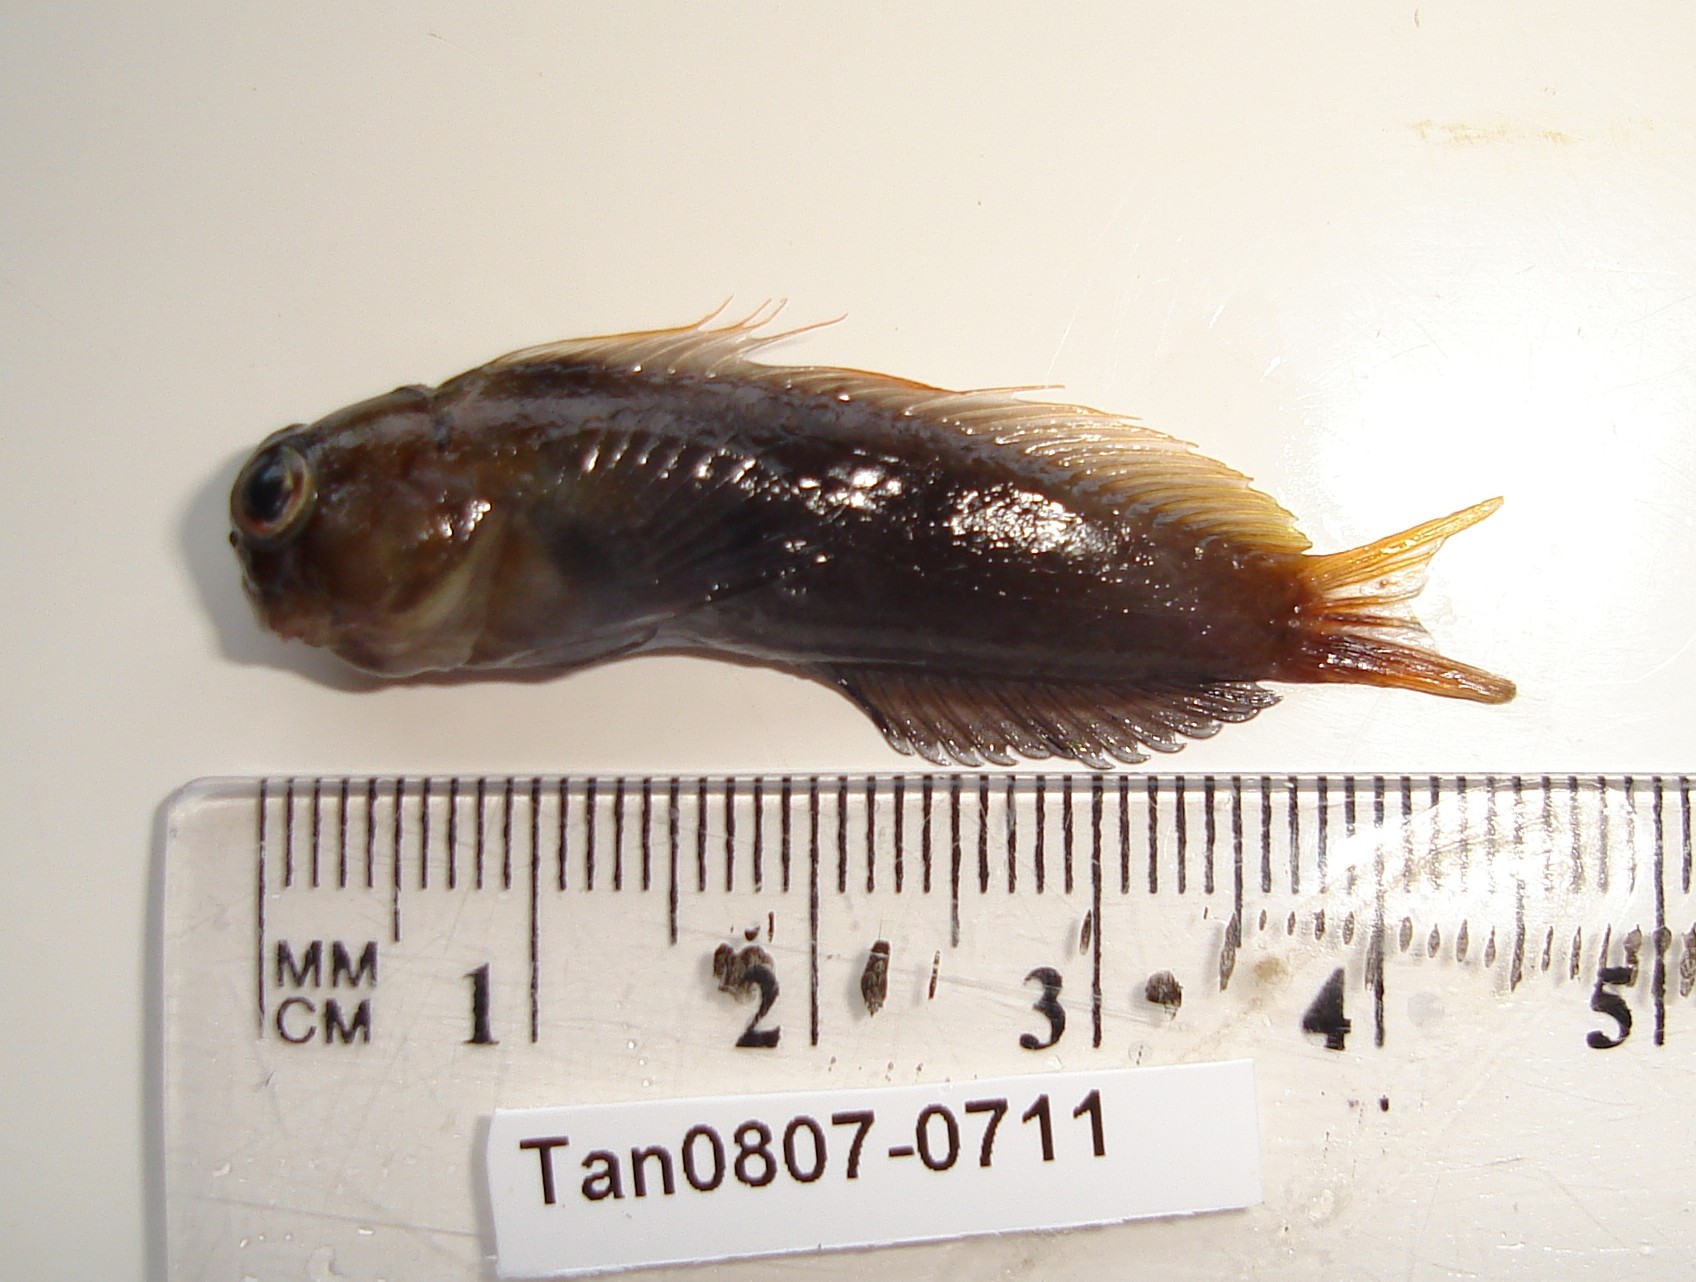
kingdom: Animalia
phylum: Chordata
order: Perciformes
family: Blenniidae
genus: Cirripectes
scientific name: Cirripectes castaneus
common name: Chestnut blenny
